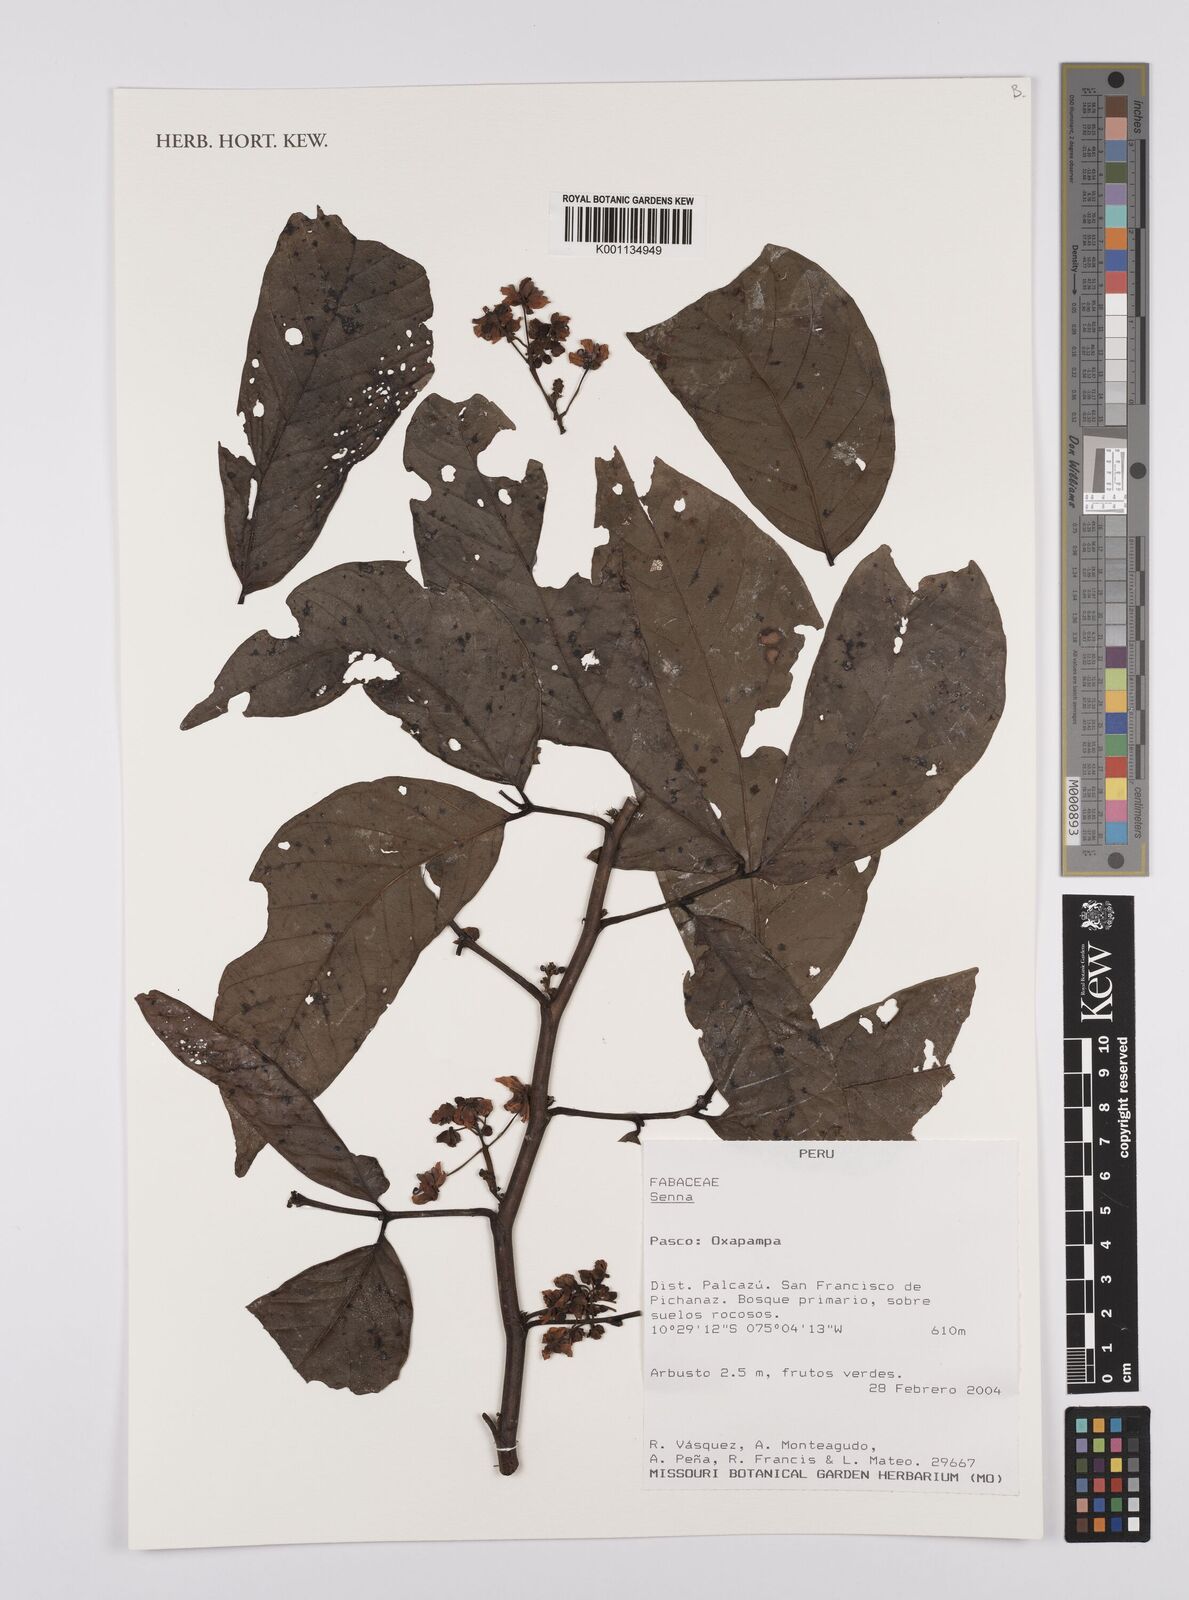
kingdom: Plantae
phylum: Tracheophyta
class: Magnoliopsida
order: Fabales
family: Fabaceae
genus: Senna
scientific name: Senna
